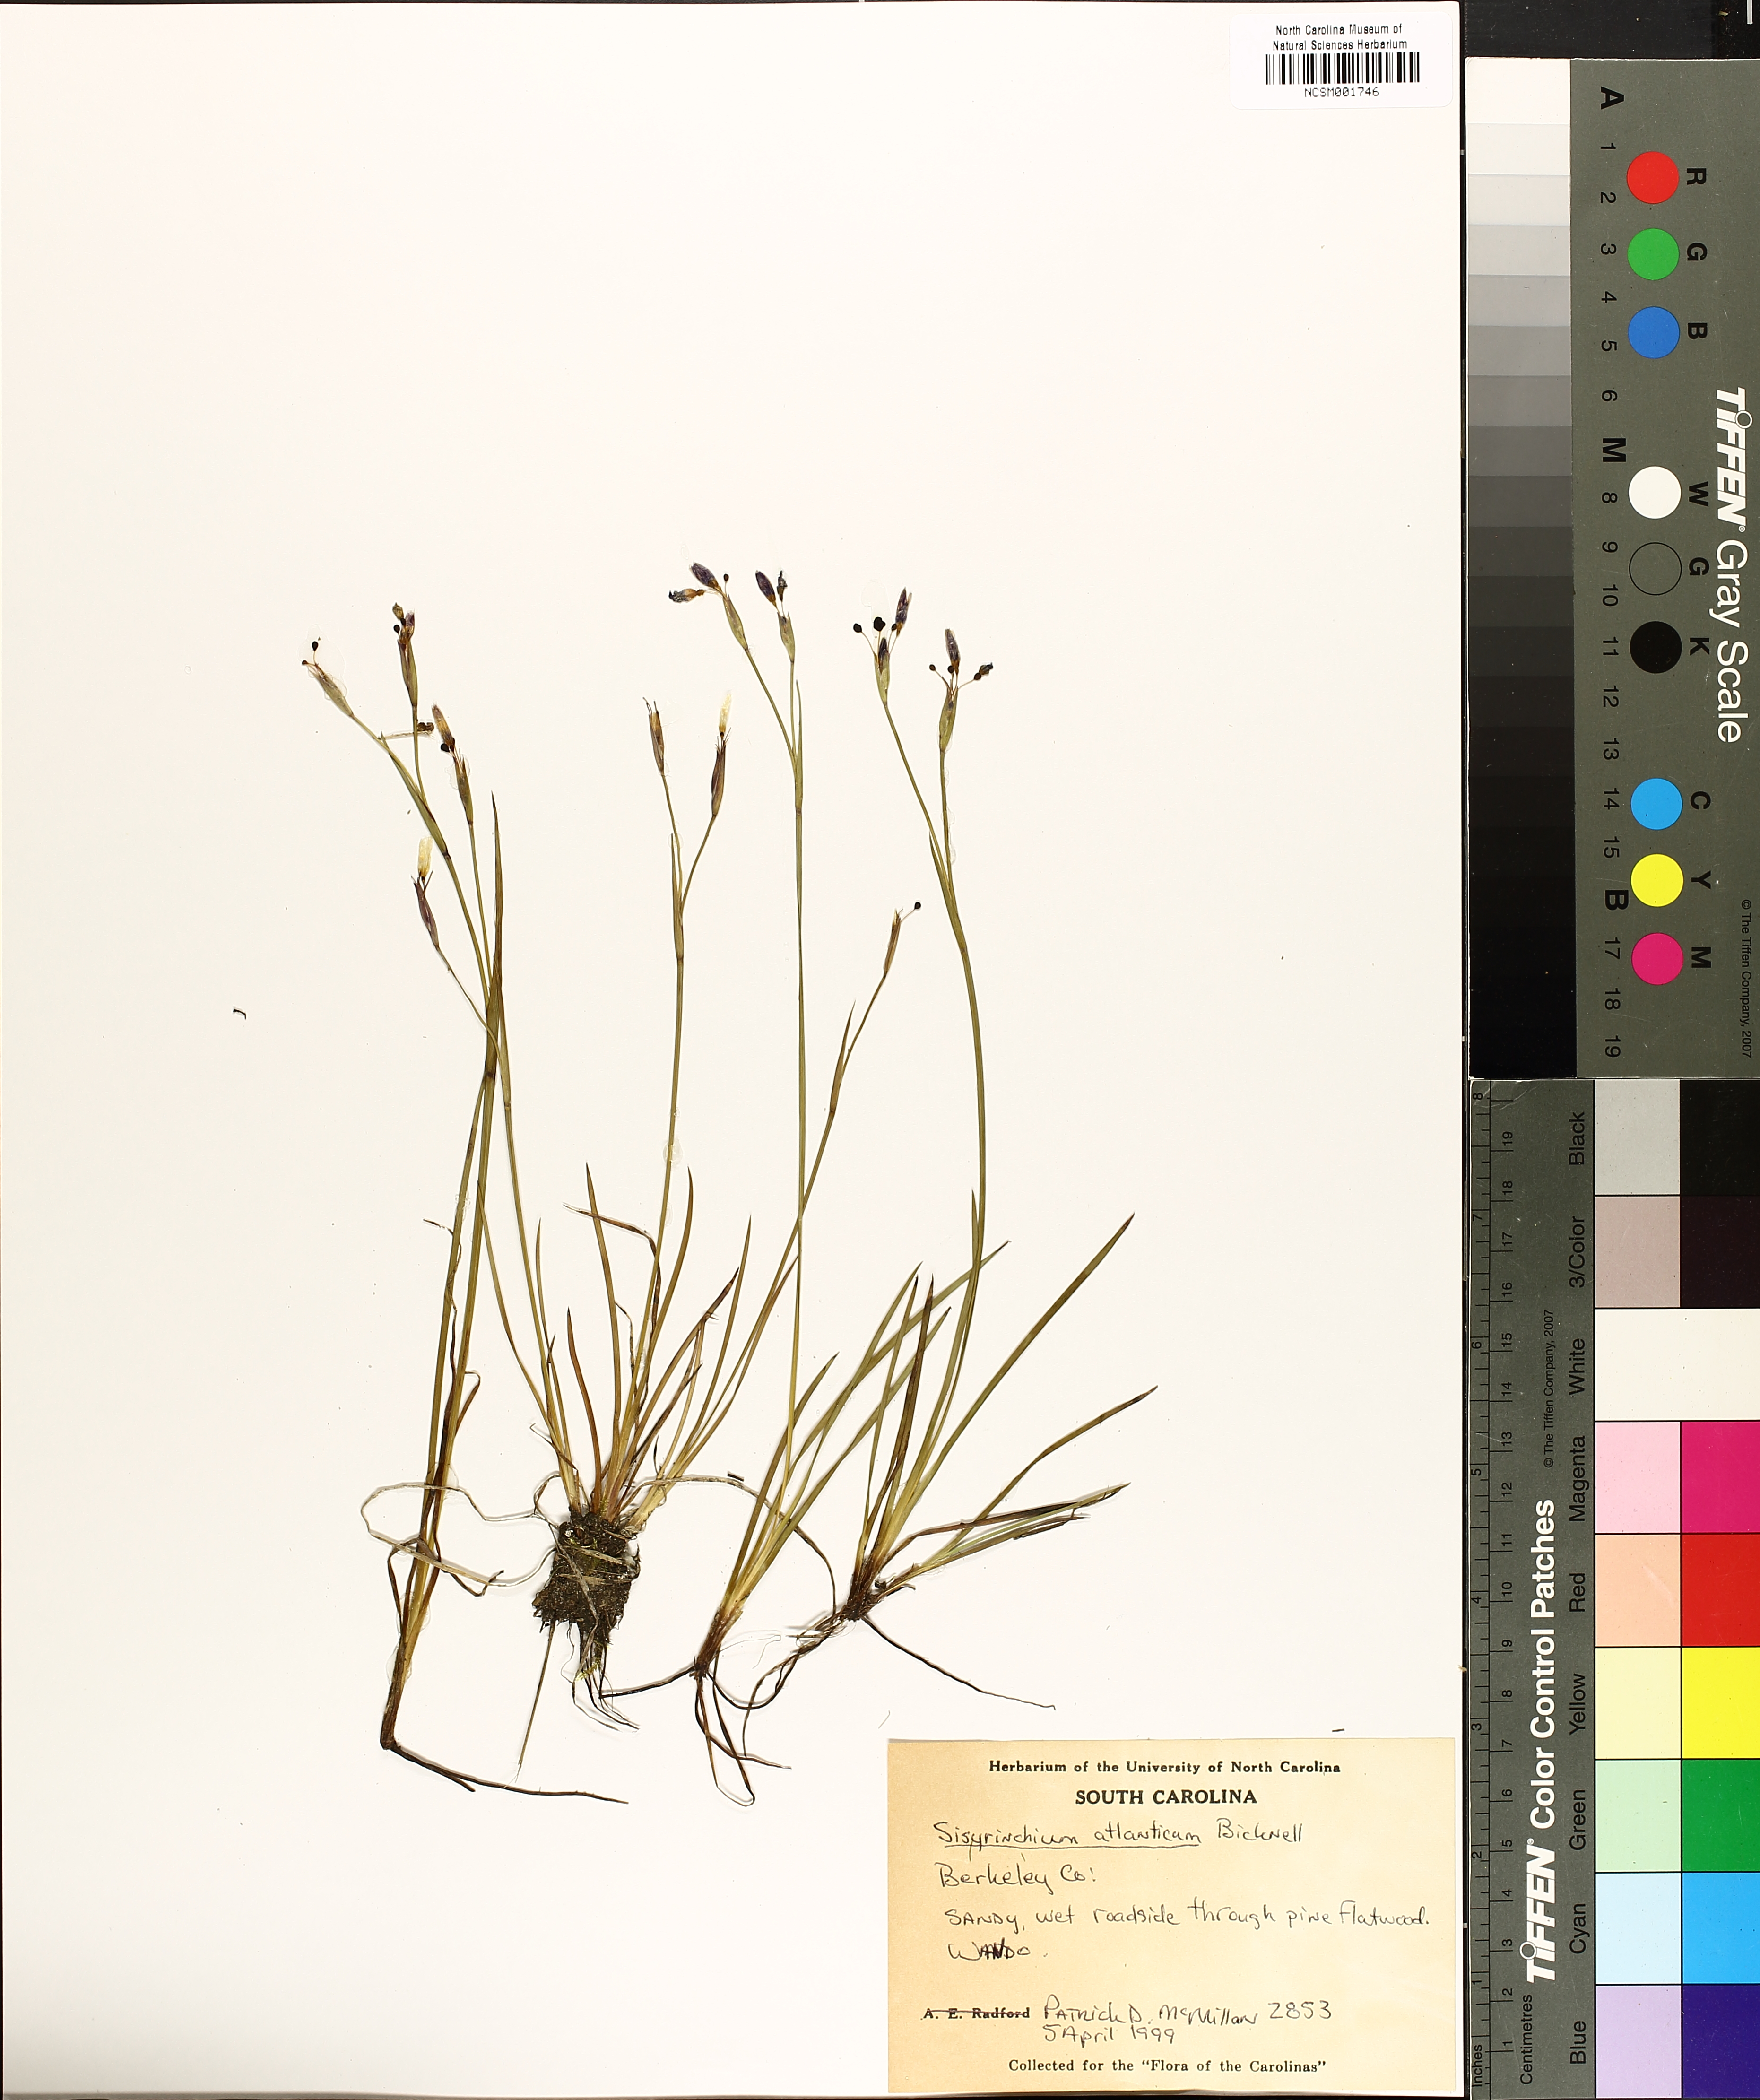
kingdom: Plantae
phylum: Tracheophyta
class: Liliopsida
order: Asparagales
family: Iridaceae
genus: Sisyrinchium
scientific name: Sisyrinchium atlanticum
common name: Eastern blue-eyed-grass
